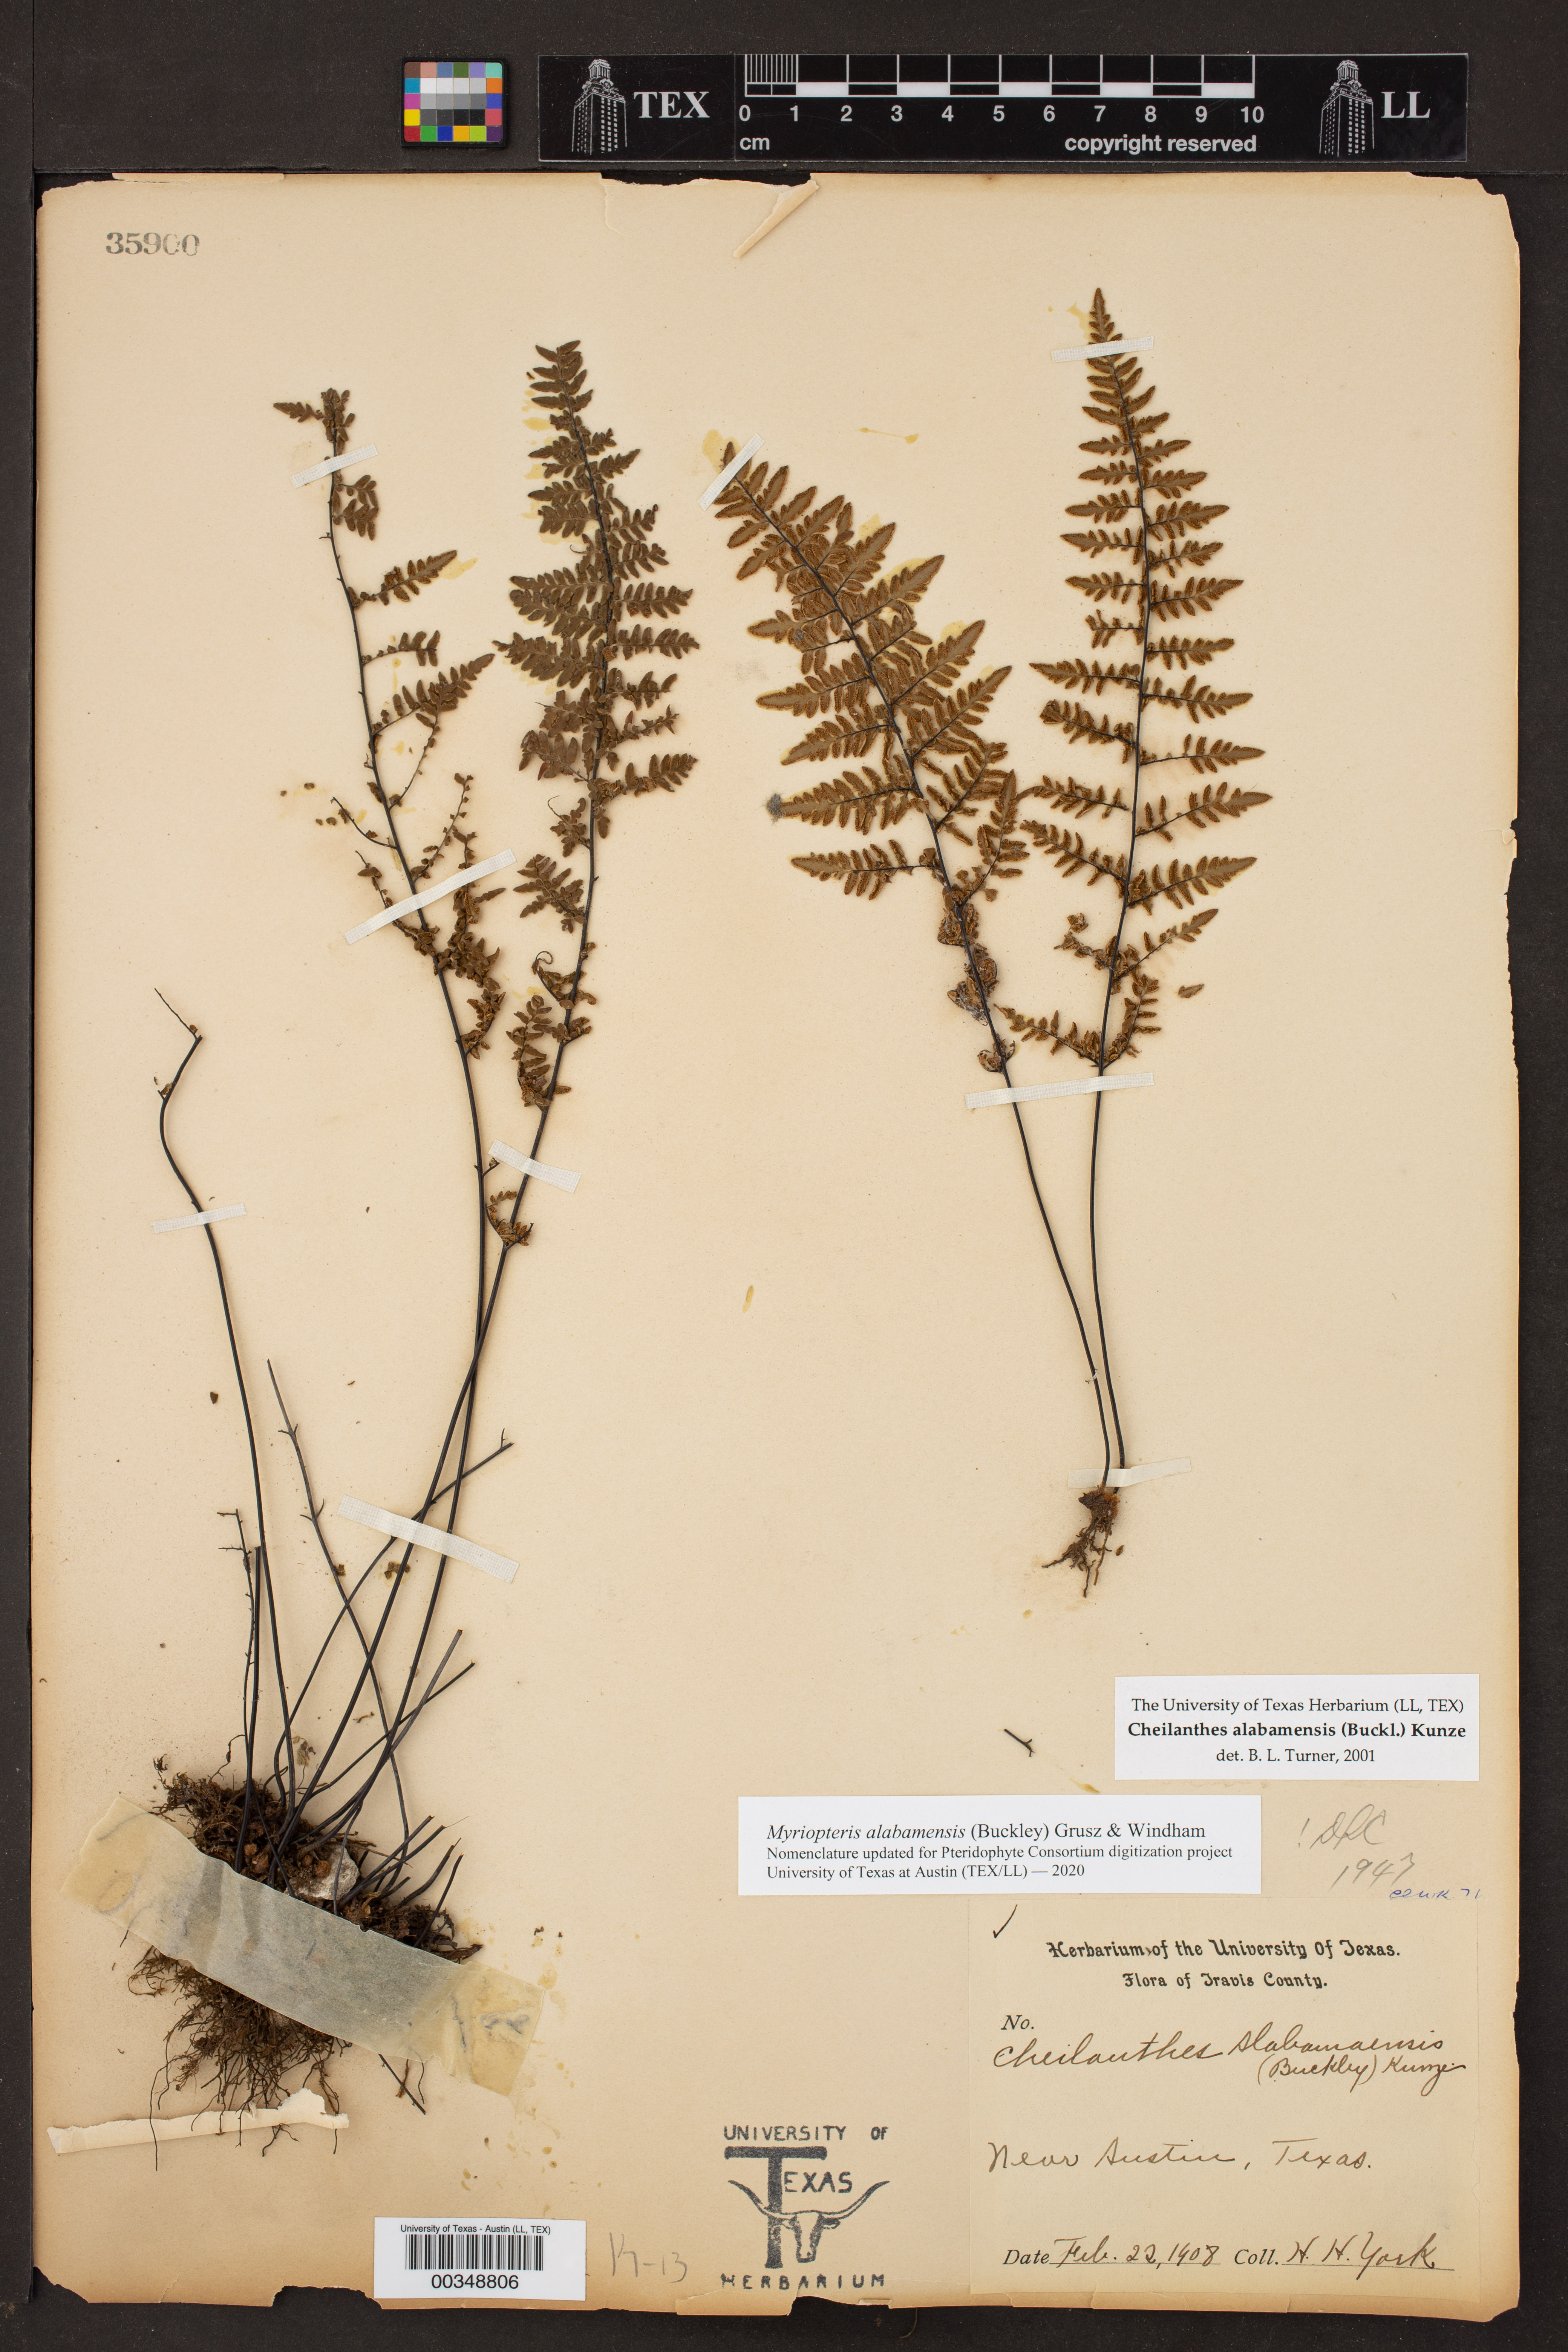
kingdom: Plantae
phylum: Tracheophyta
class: Polypodiopsida
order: Polypodiales
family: Pteridaceae
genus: Myriopteris
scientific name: Myriopteris alabamensis
